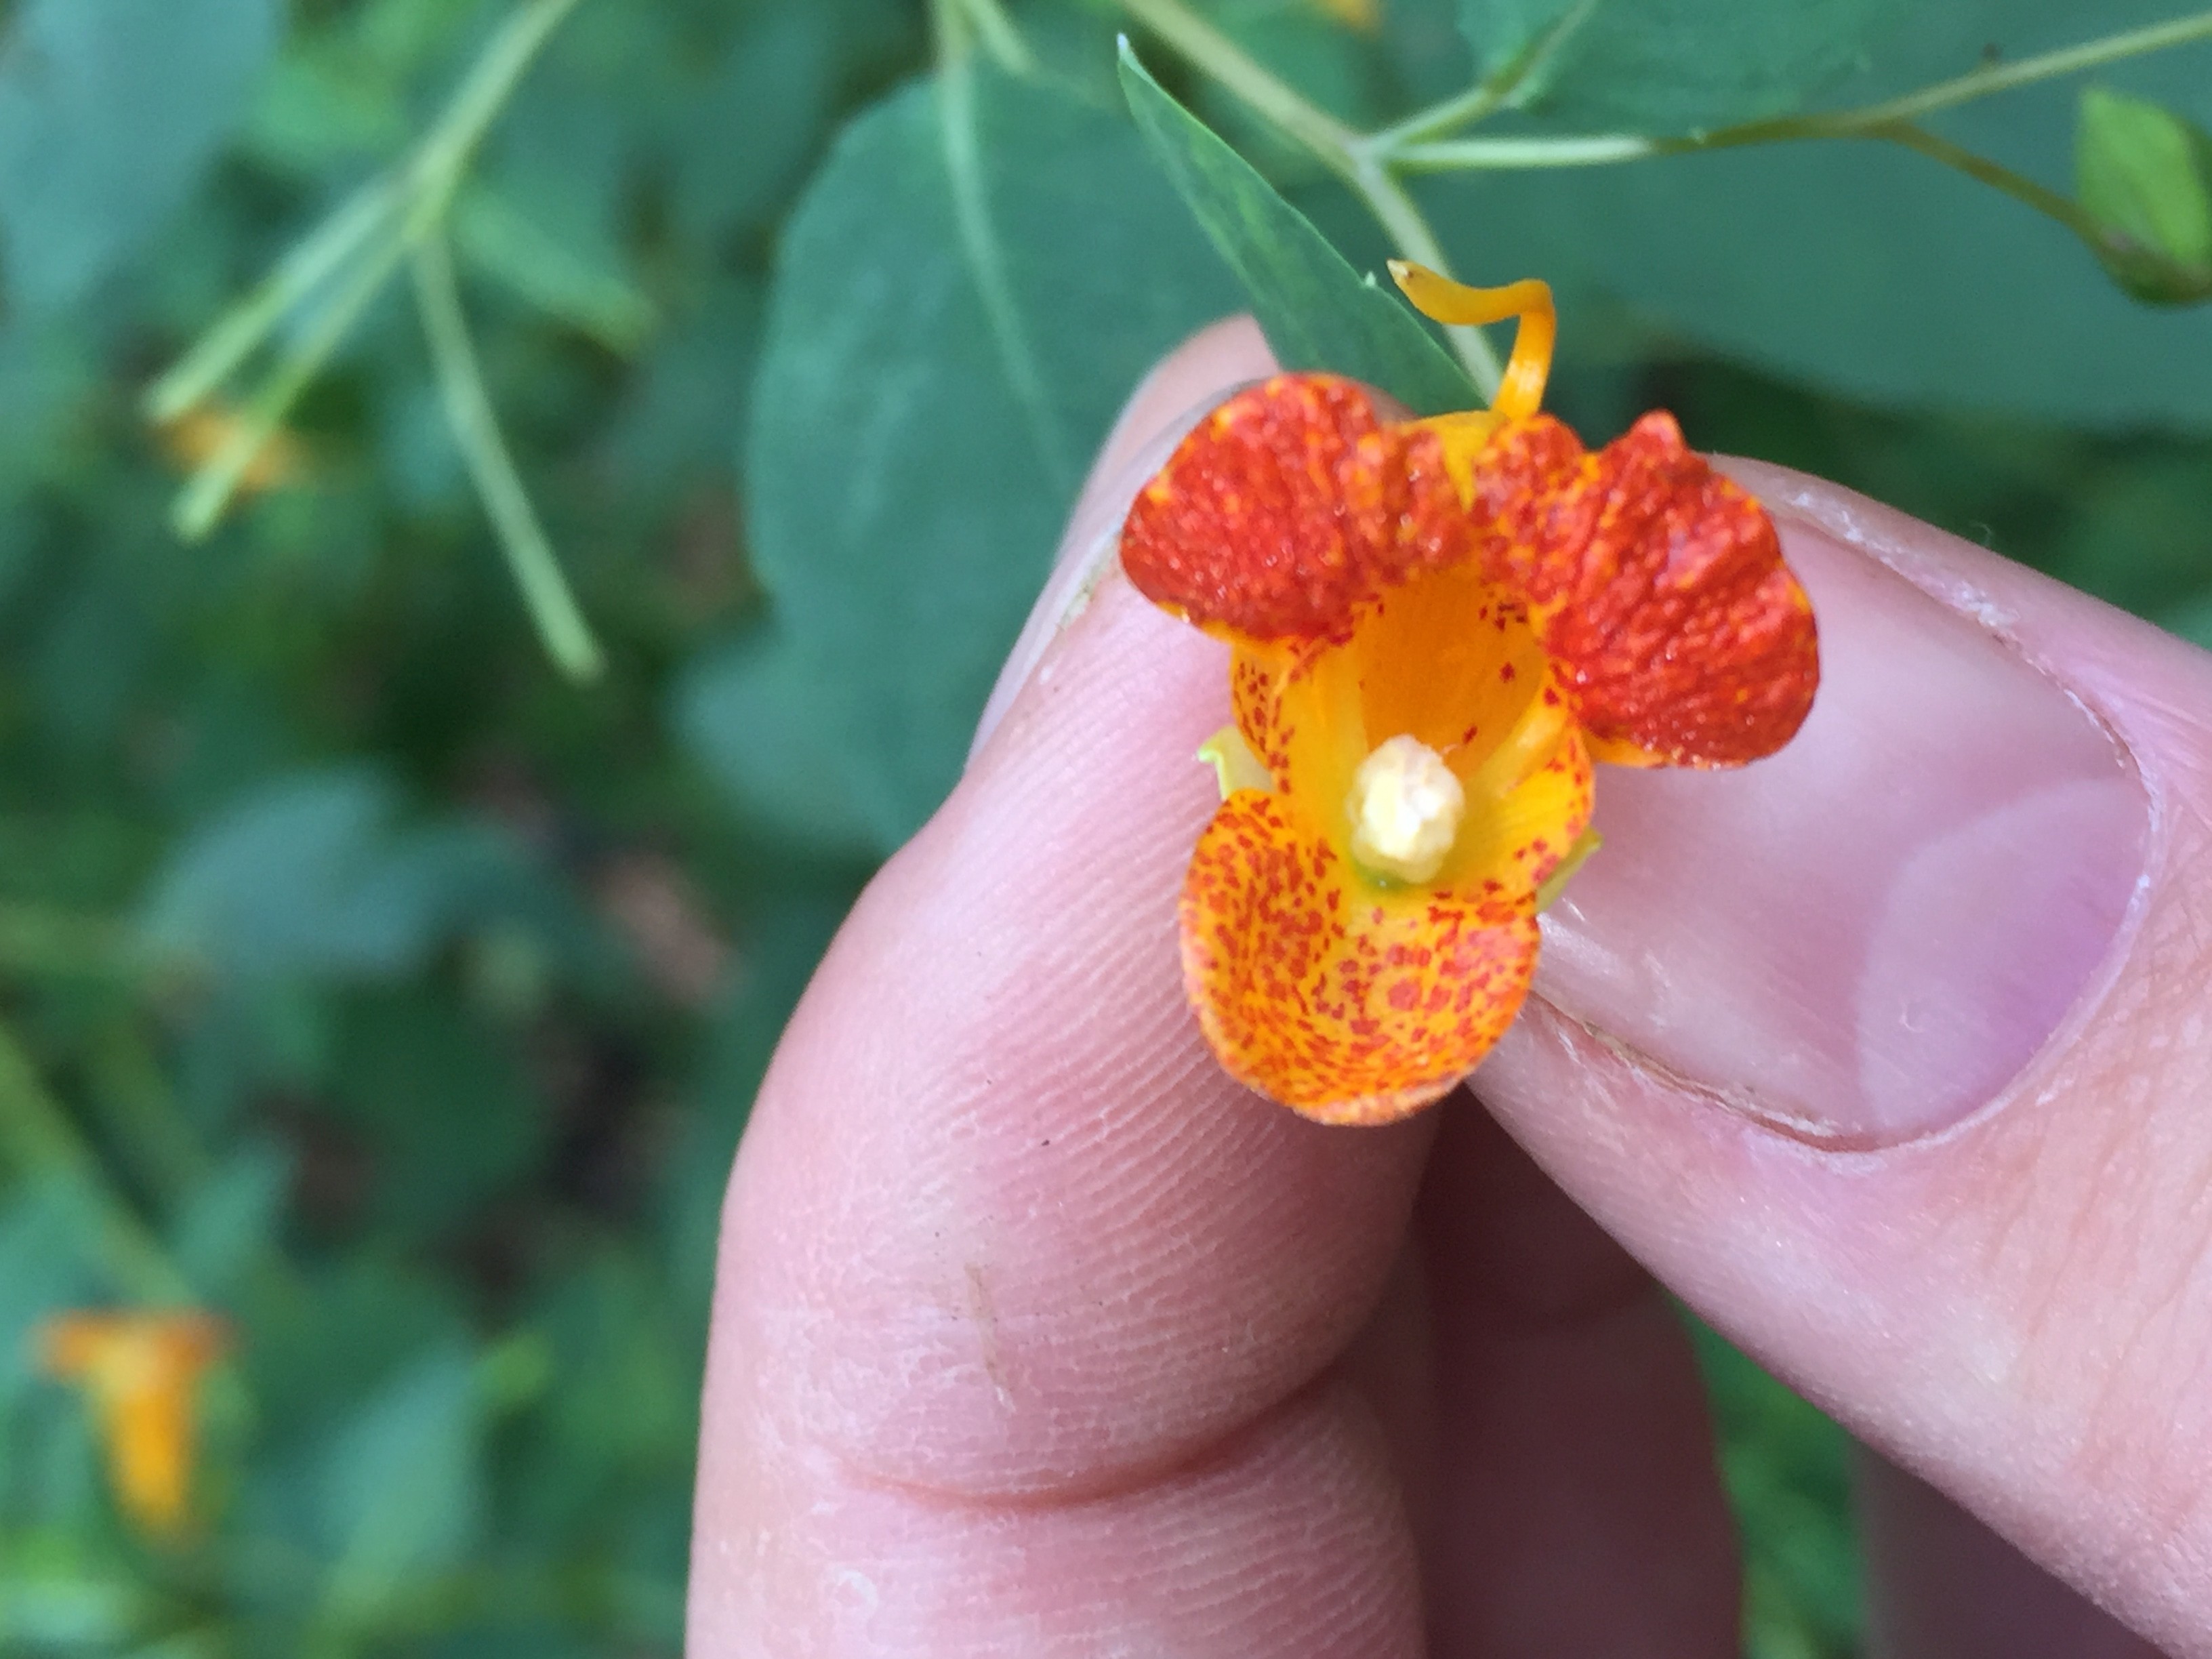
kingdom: Plantae
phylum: Tracheophyta
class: Magnoliopsida
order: Ericales
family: Balsaminaceae
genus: Impatiens
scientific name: Impatiens capensis
